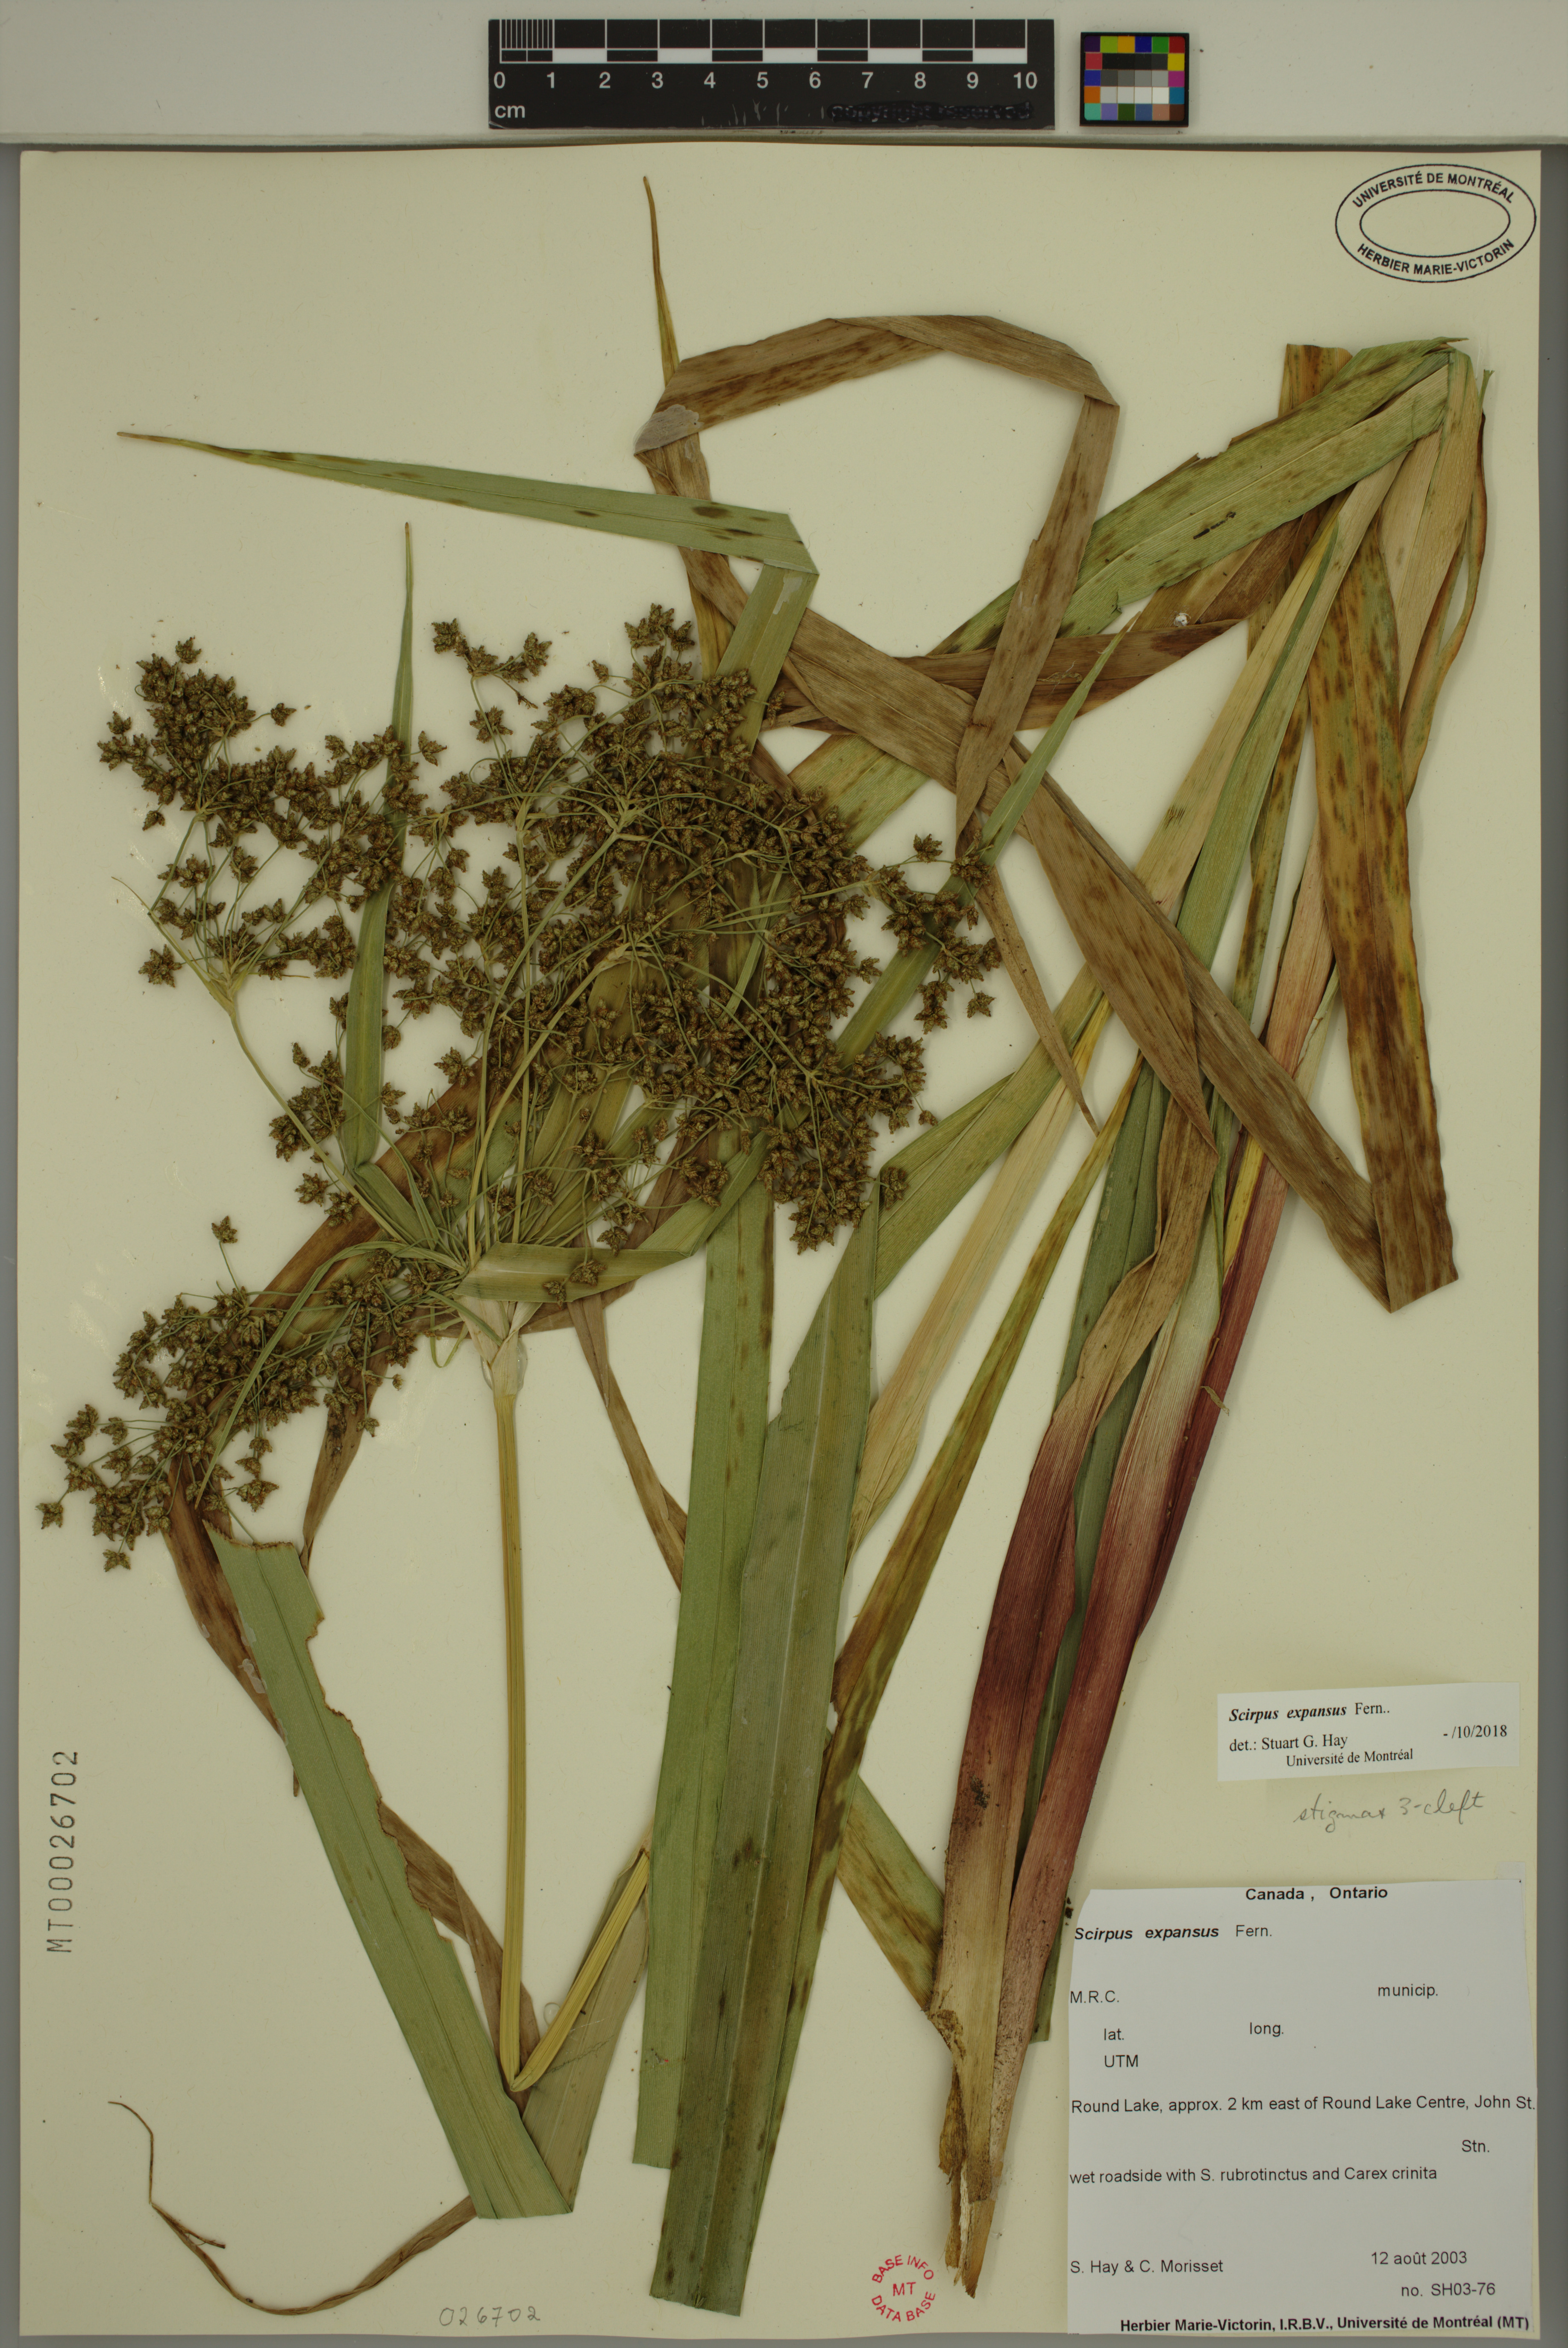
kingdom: Plantae
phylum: Tracheophyta
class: Liliopsida
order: Poales
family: Cyperaceae
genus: Scirpus
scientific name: Scirpus expansus
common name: Woodland bulrush
